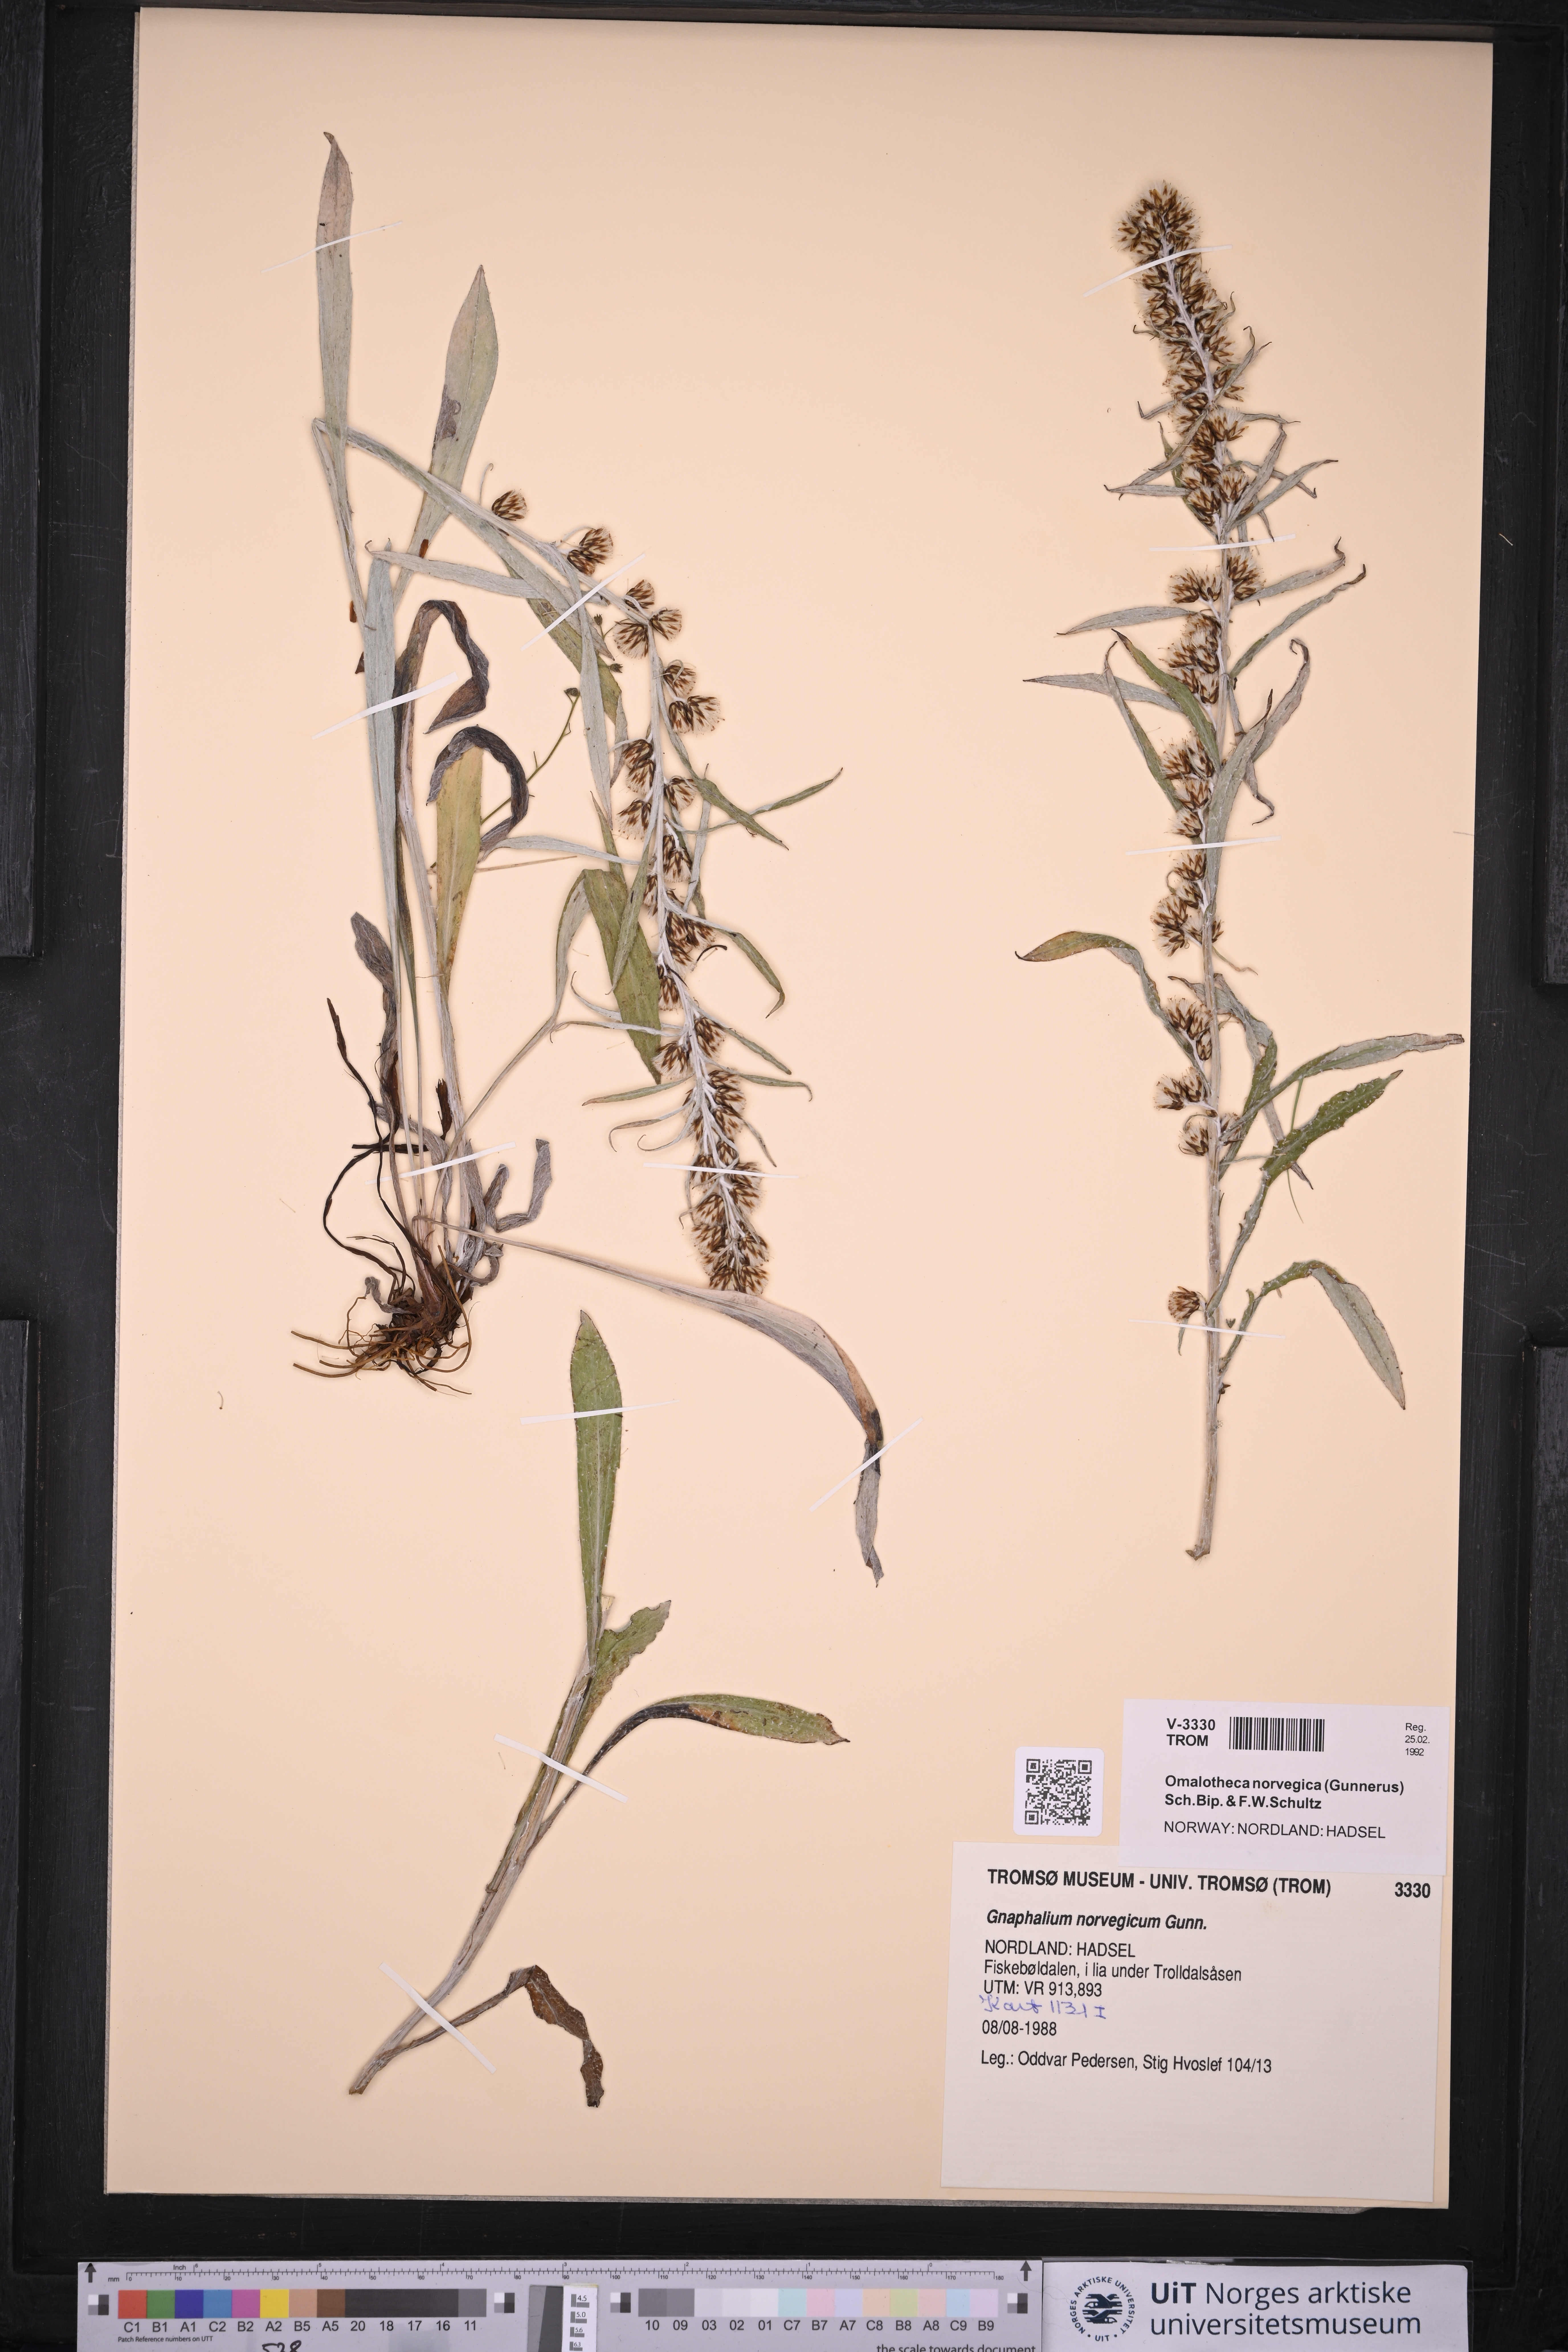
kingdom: Plantae
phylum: Tracheophyta
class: Magnoliopsida
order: Asterales
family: Asteraceae
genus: Omalotheca
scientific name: Omalotheca norvegica
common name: Norwegian arctic-cudweed
